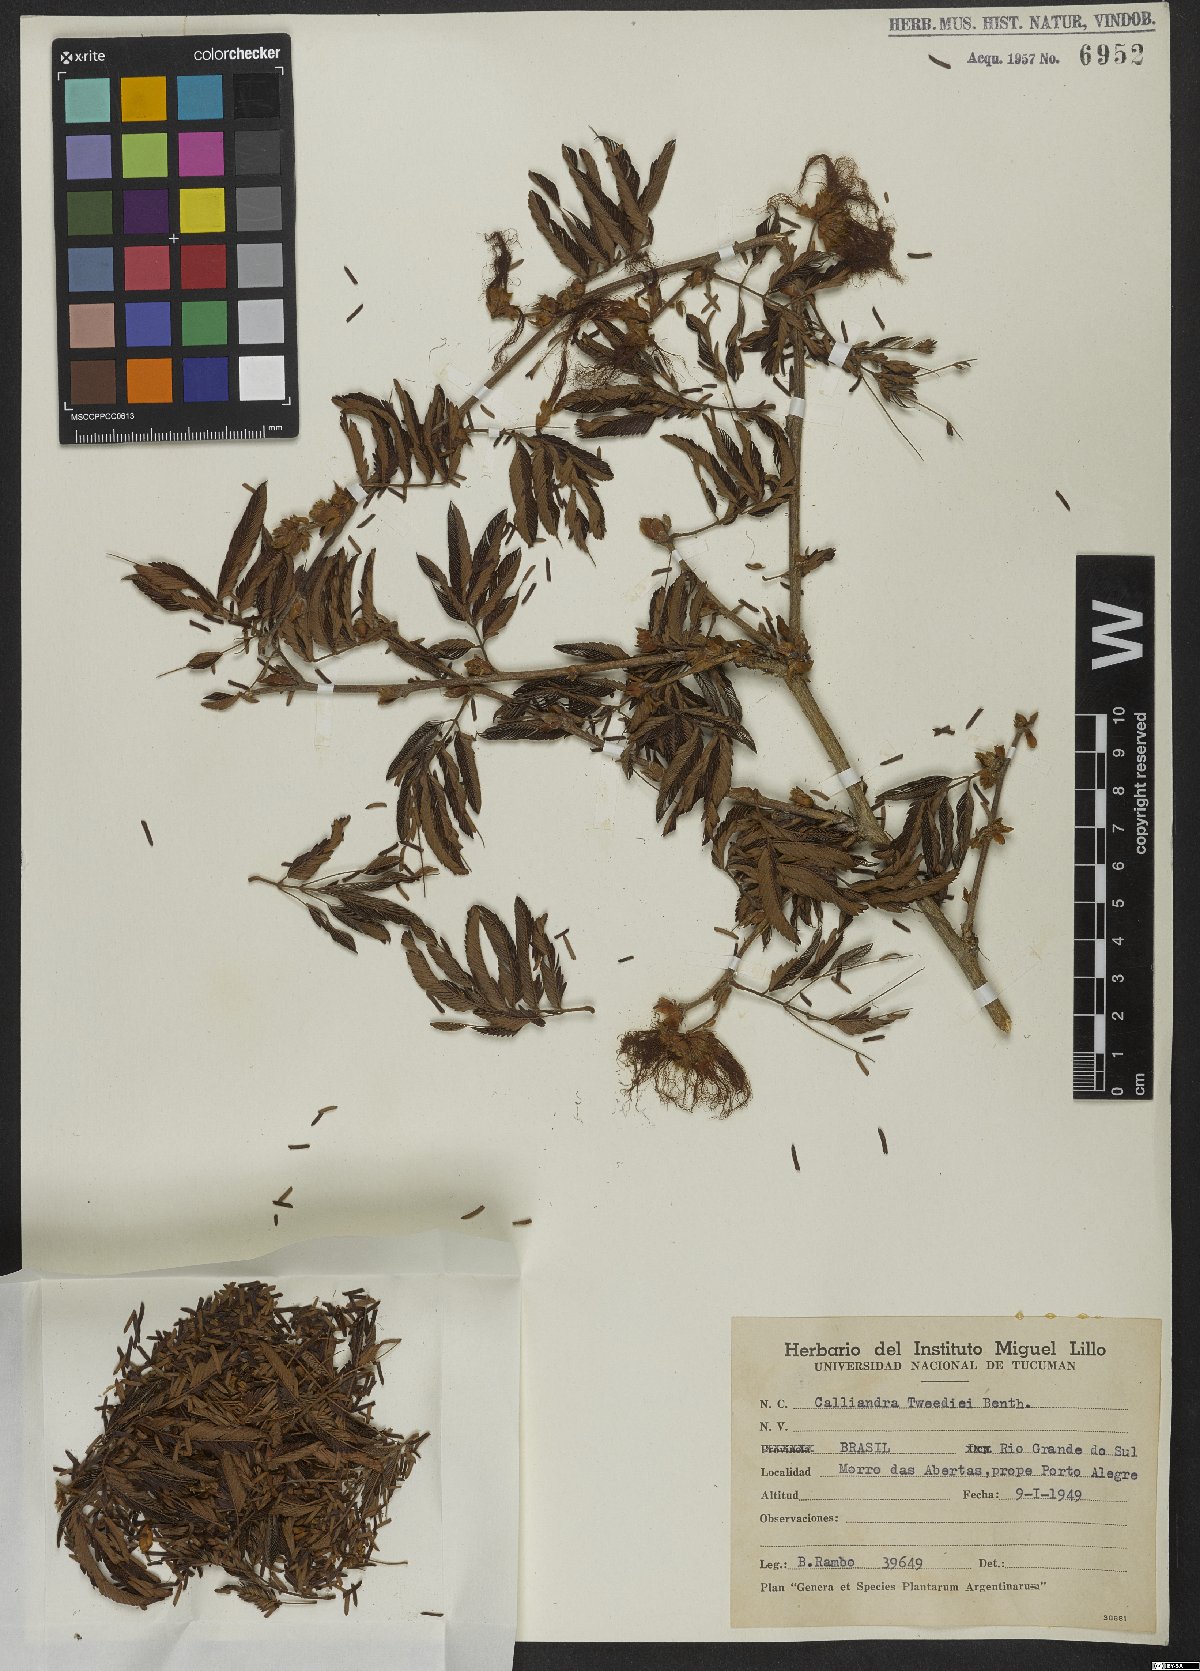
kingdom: Plantae
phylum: Tracheophyta
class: Magnoliopsida
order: Fabales
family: Fabaceae
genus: Calliandra
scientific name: Calliandra tweedii
